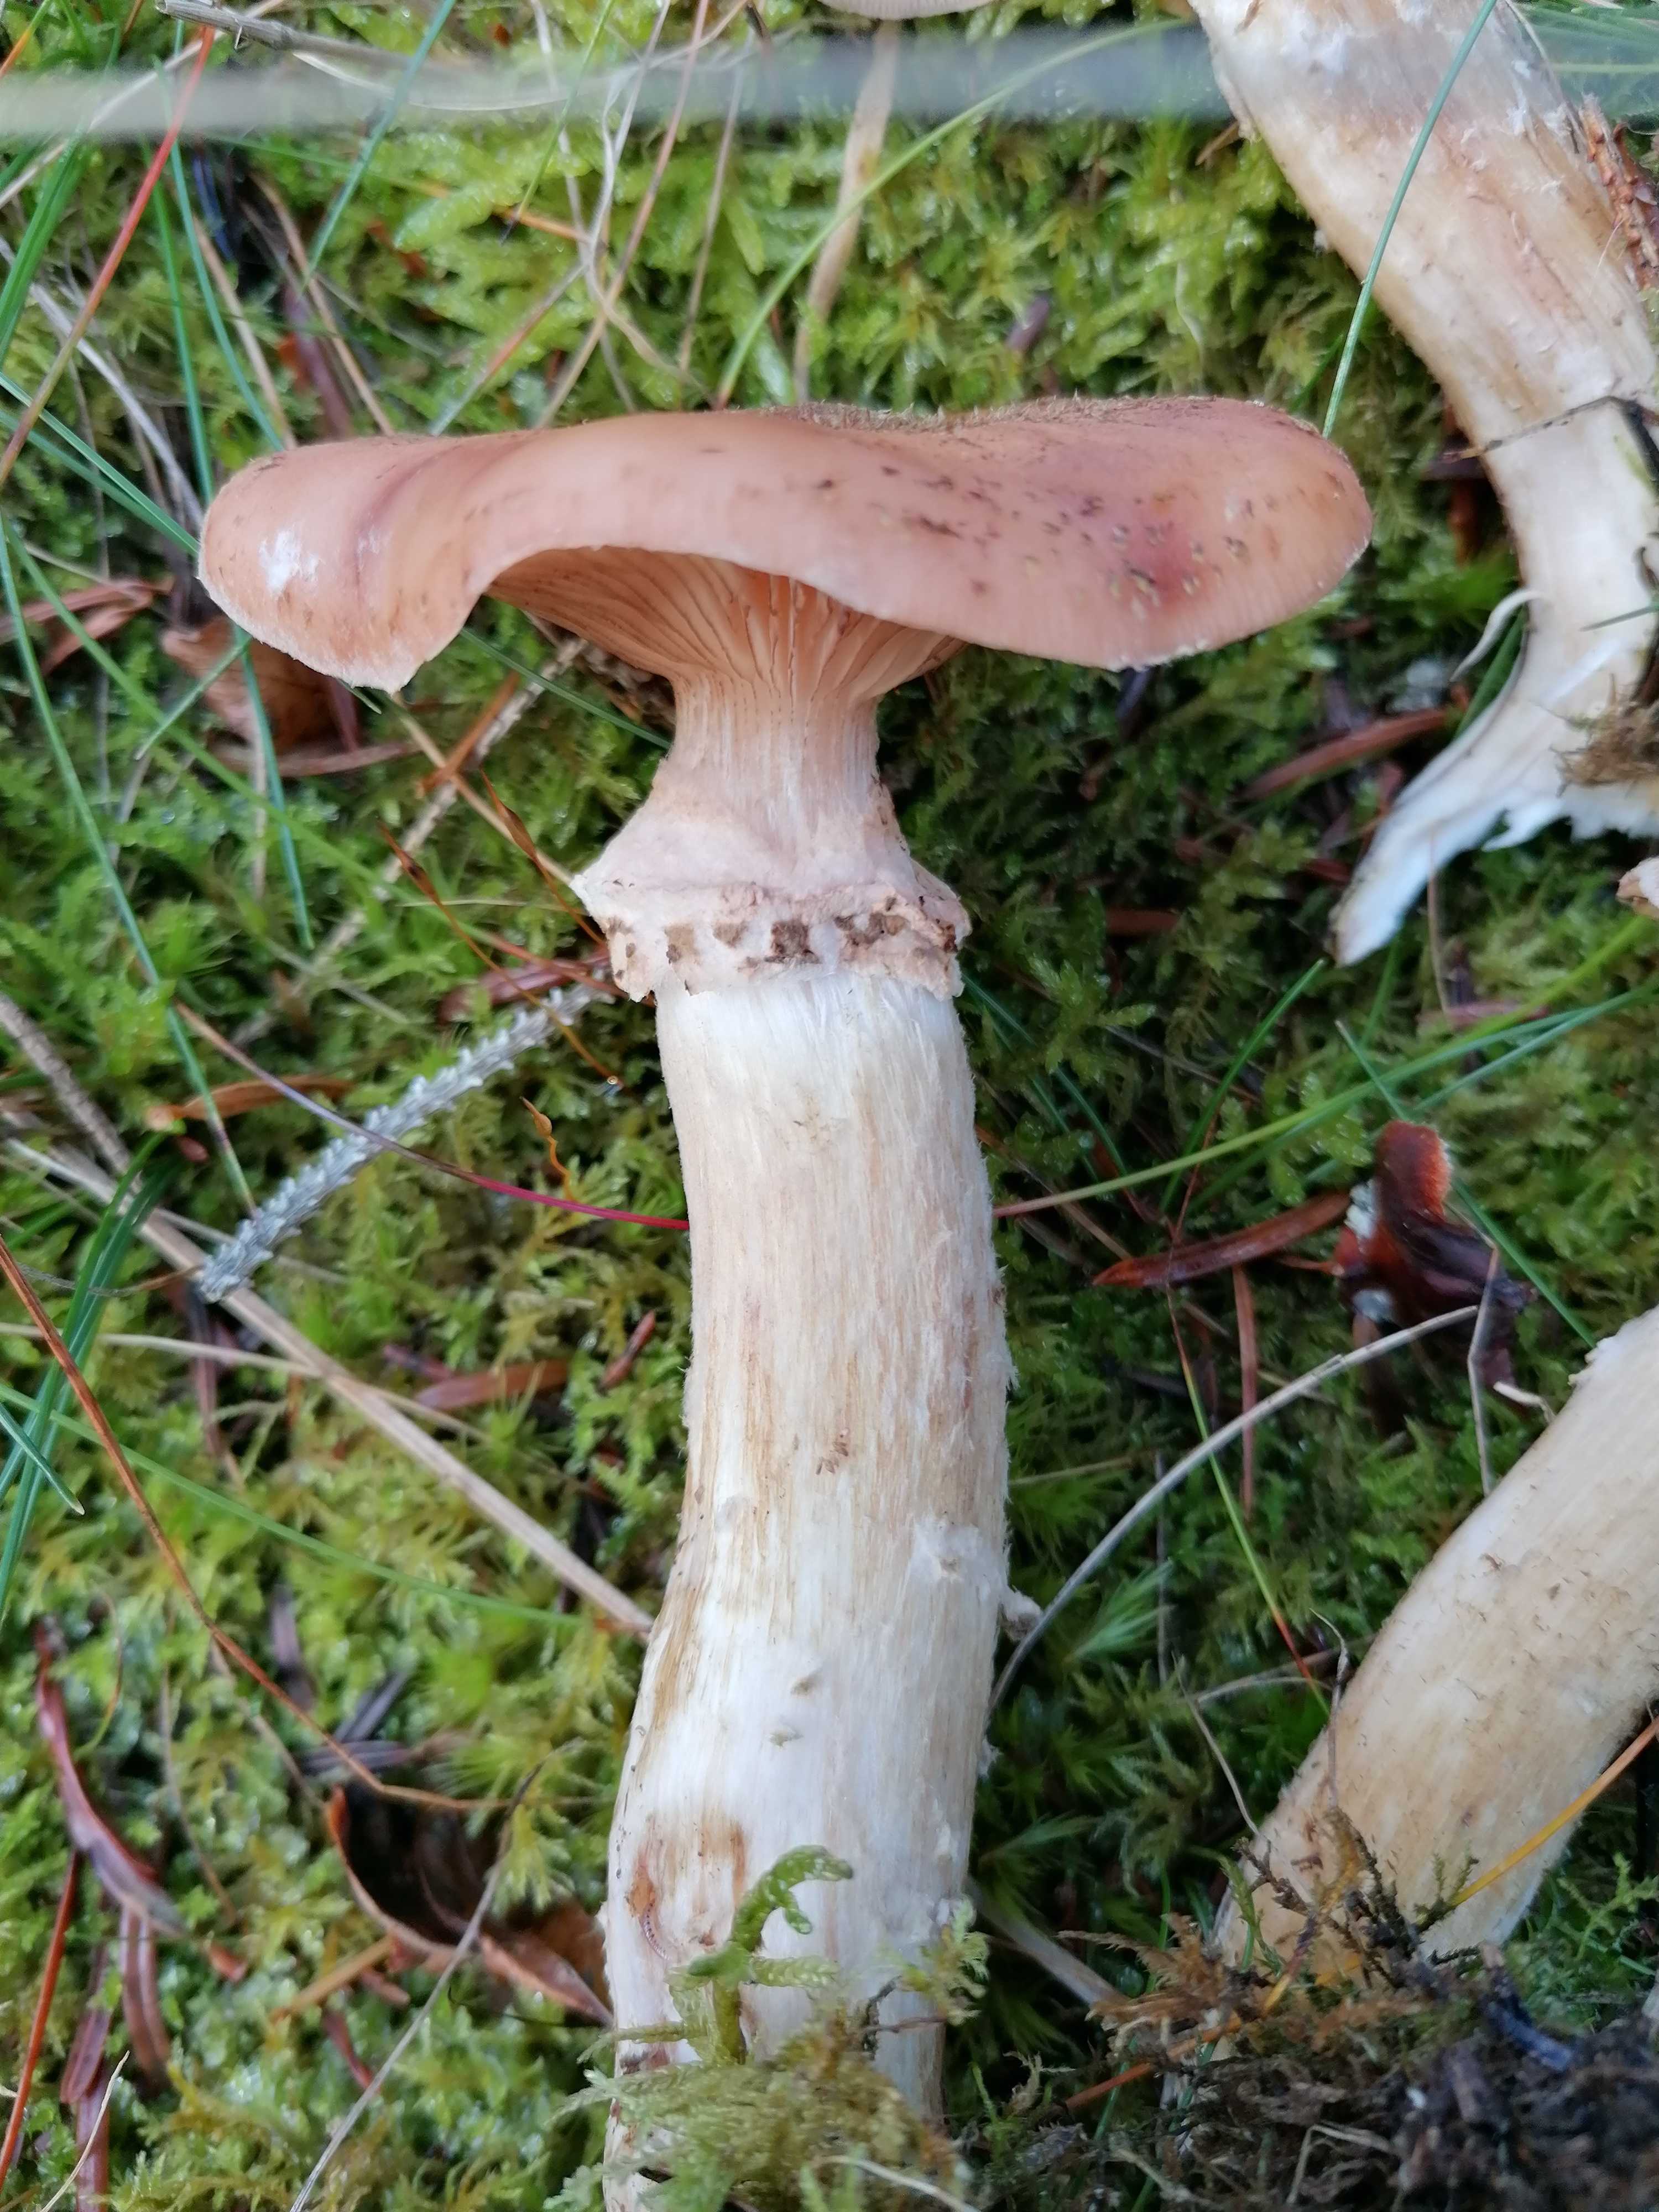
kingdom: Fungi
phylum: Basidiomycota
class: Agaricomycetes
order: Agaricales
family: Physalacriaceae
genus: Armillaria
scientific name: Armillaria ostoyae
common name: mørk honningsvamp
